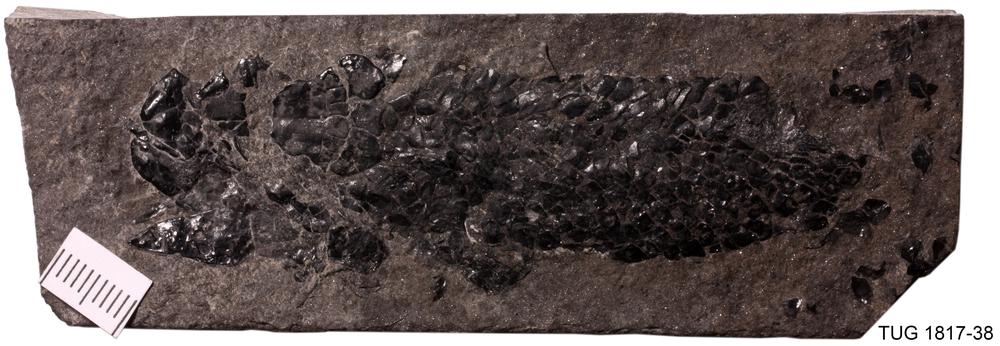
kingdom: Animalia
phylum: Chordata
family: Osteolepididae
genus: Osteolepis
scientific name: Osteolepis panderi
